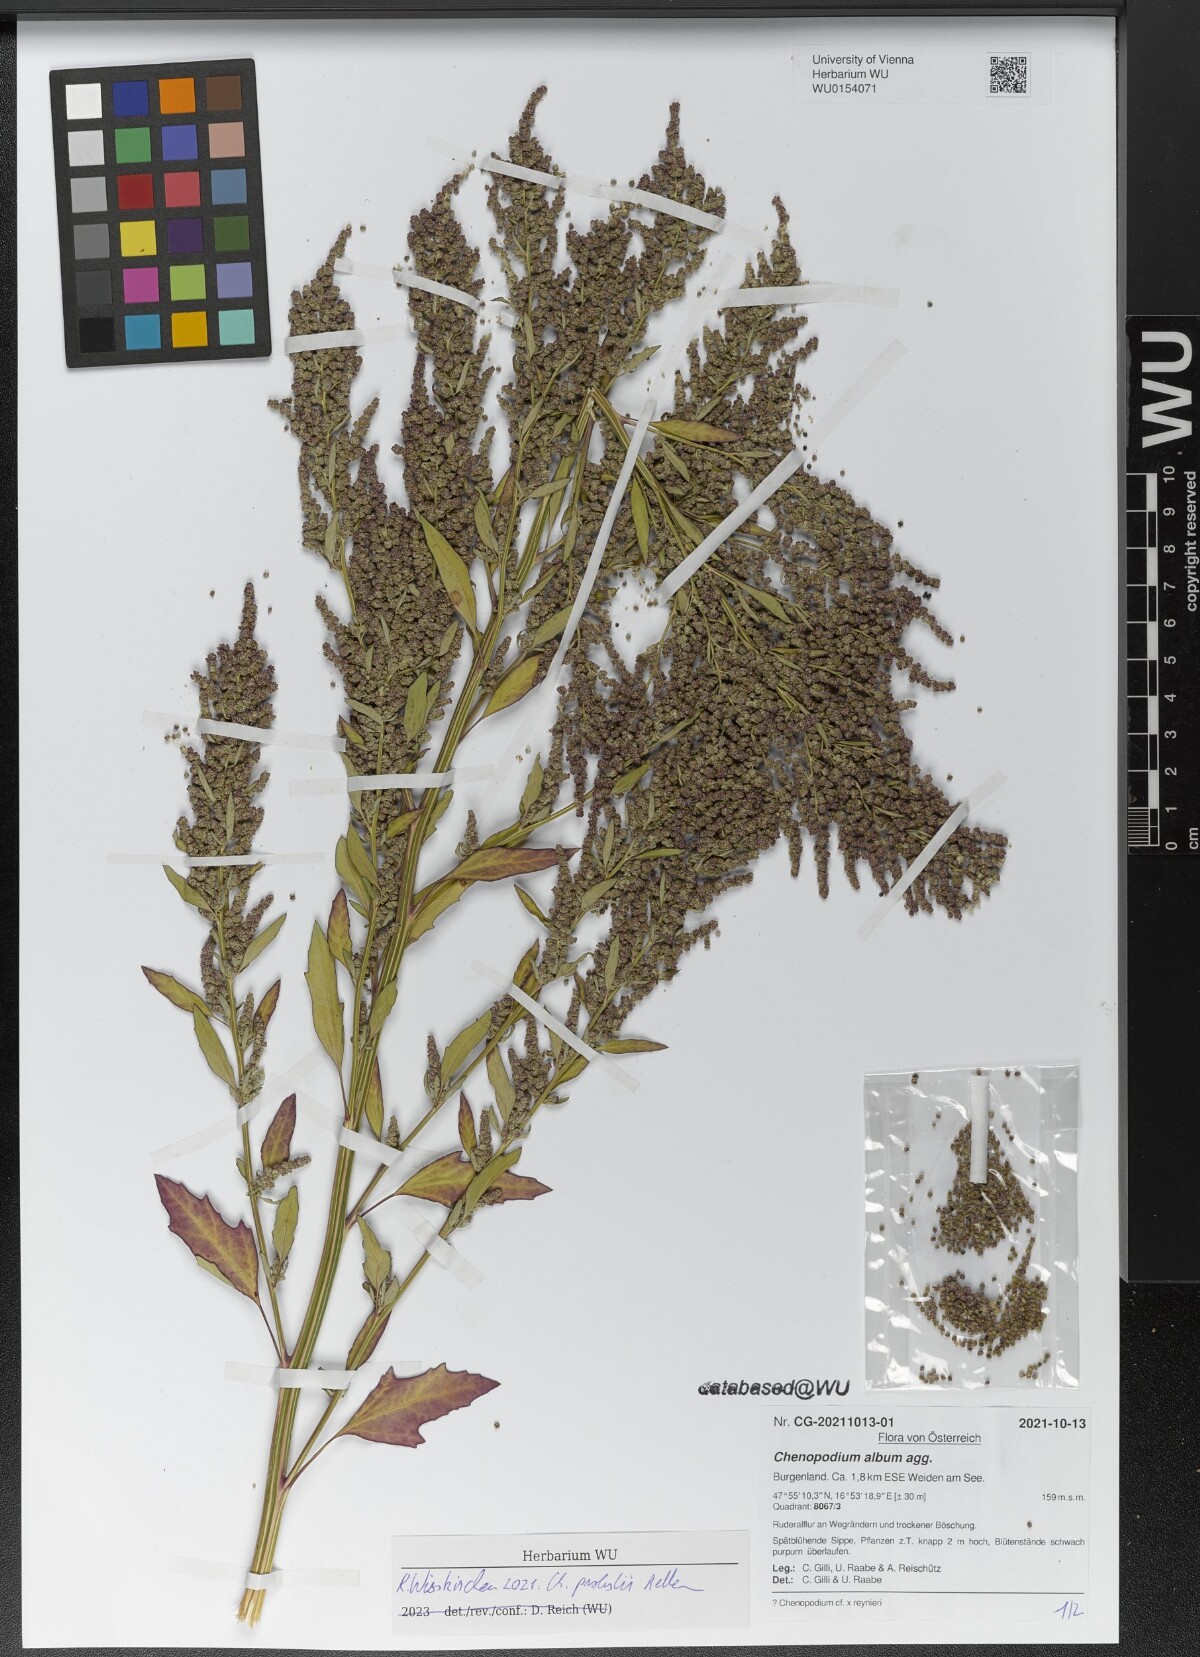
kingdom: Plantae
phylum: Tracheophyta
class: Magnoliopsida
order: Caryophyllales
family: Amaranthaceae
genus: Chenopodium
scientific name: Chenopodium probstii
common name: Probst's goosefoot
